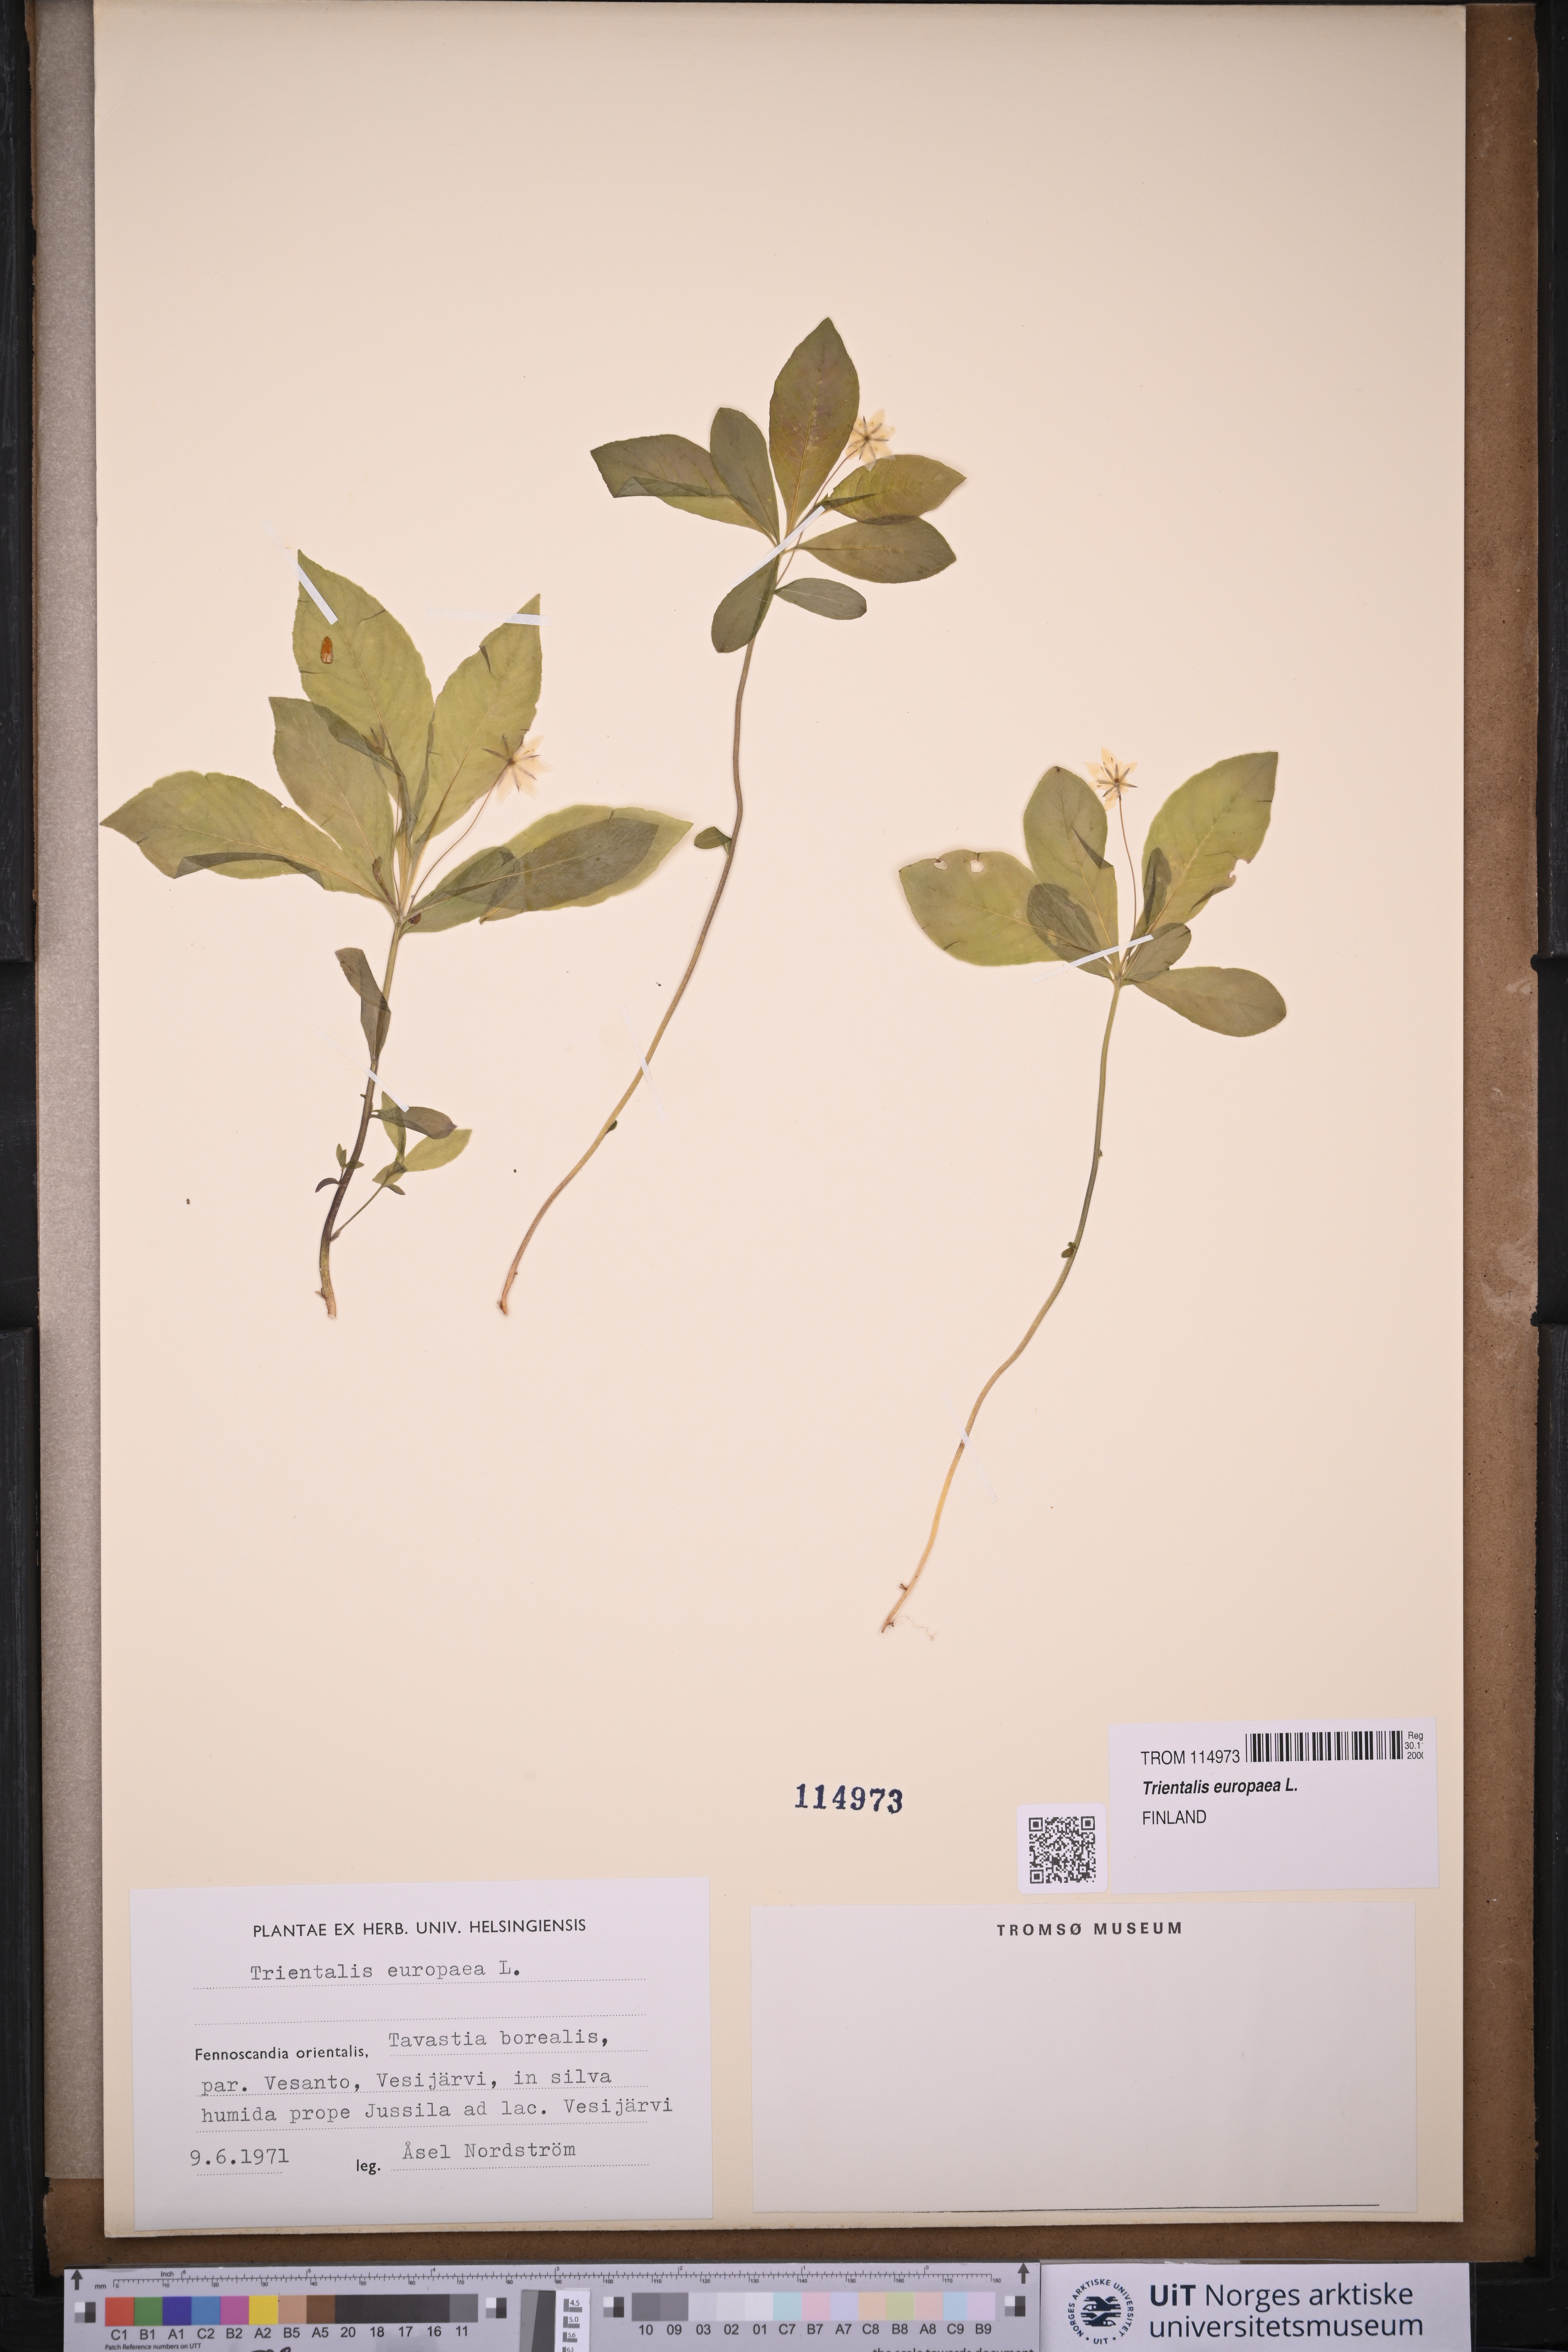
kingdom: Plantae
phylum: Tracheophyta
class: Magnoliopsida
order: Ericales
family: Primulaceae
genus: Lysimachia
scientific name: Lysimachia europaea
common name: Arctic starflower
